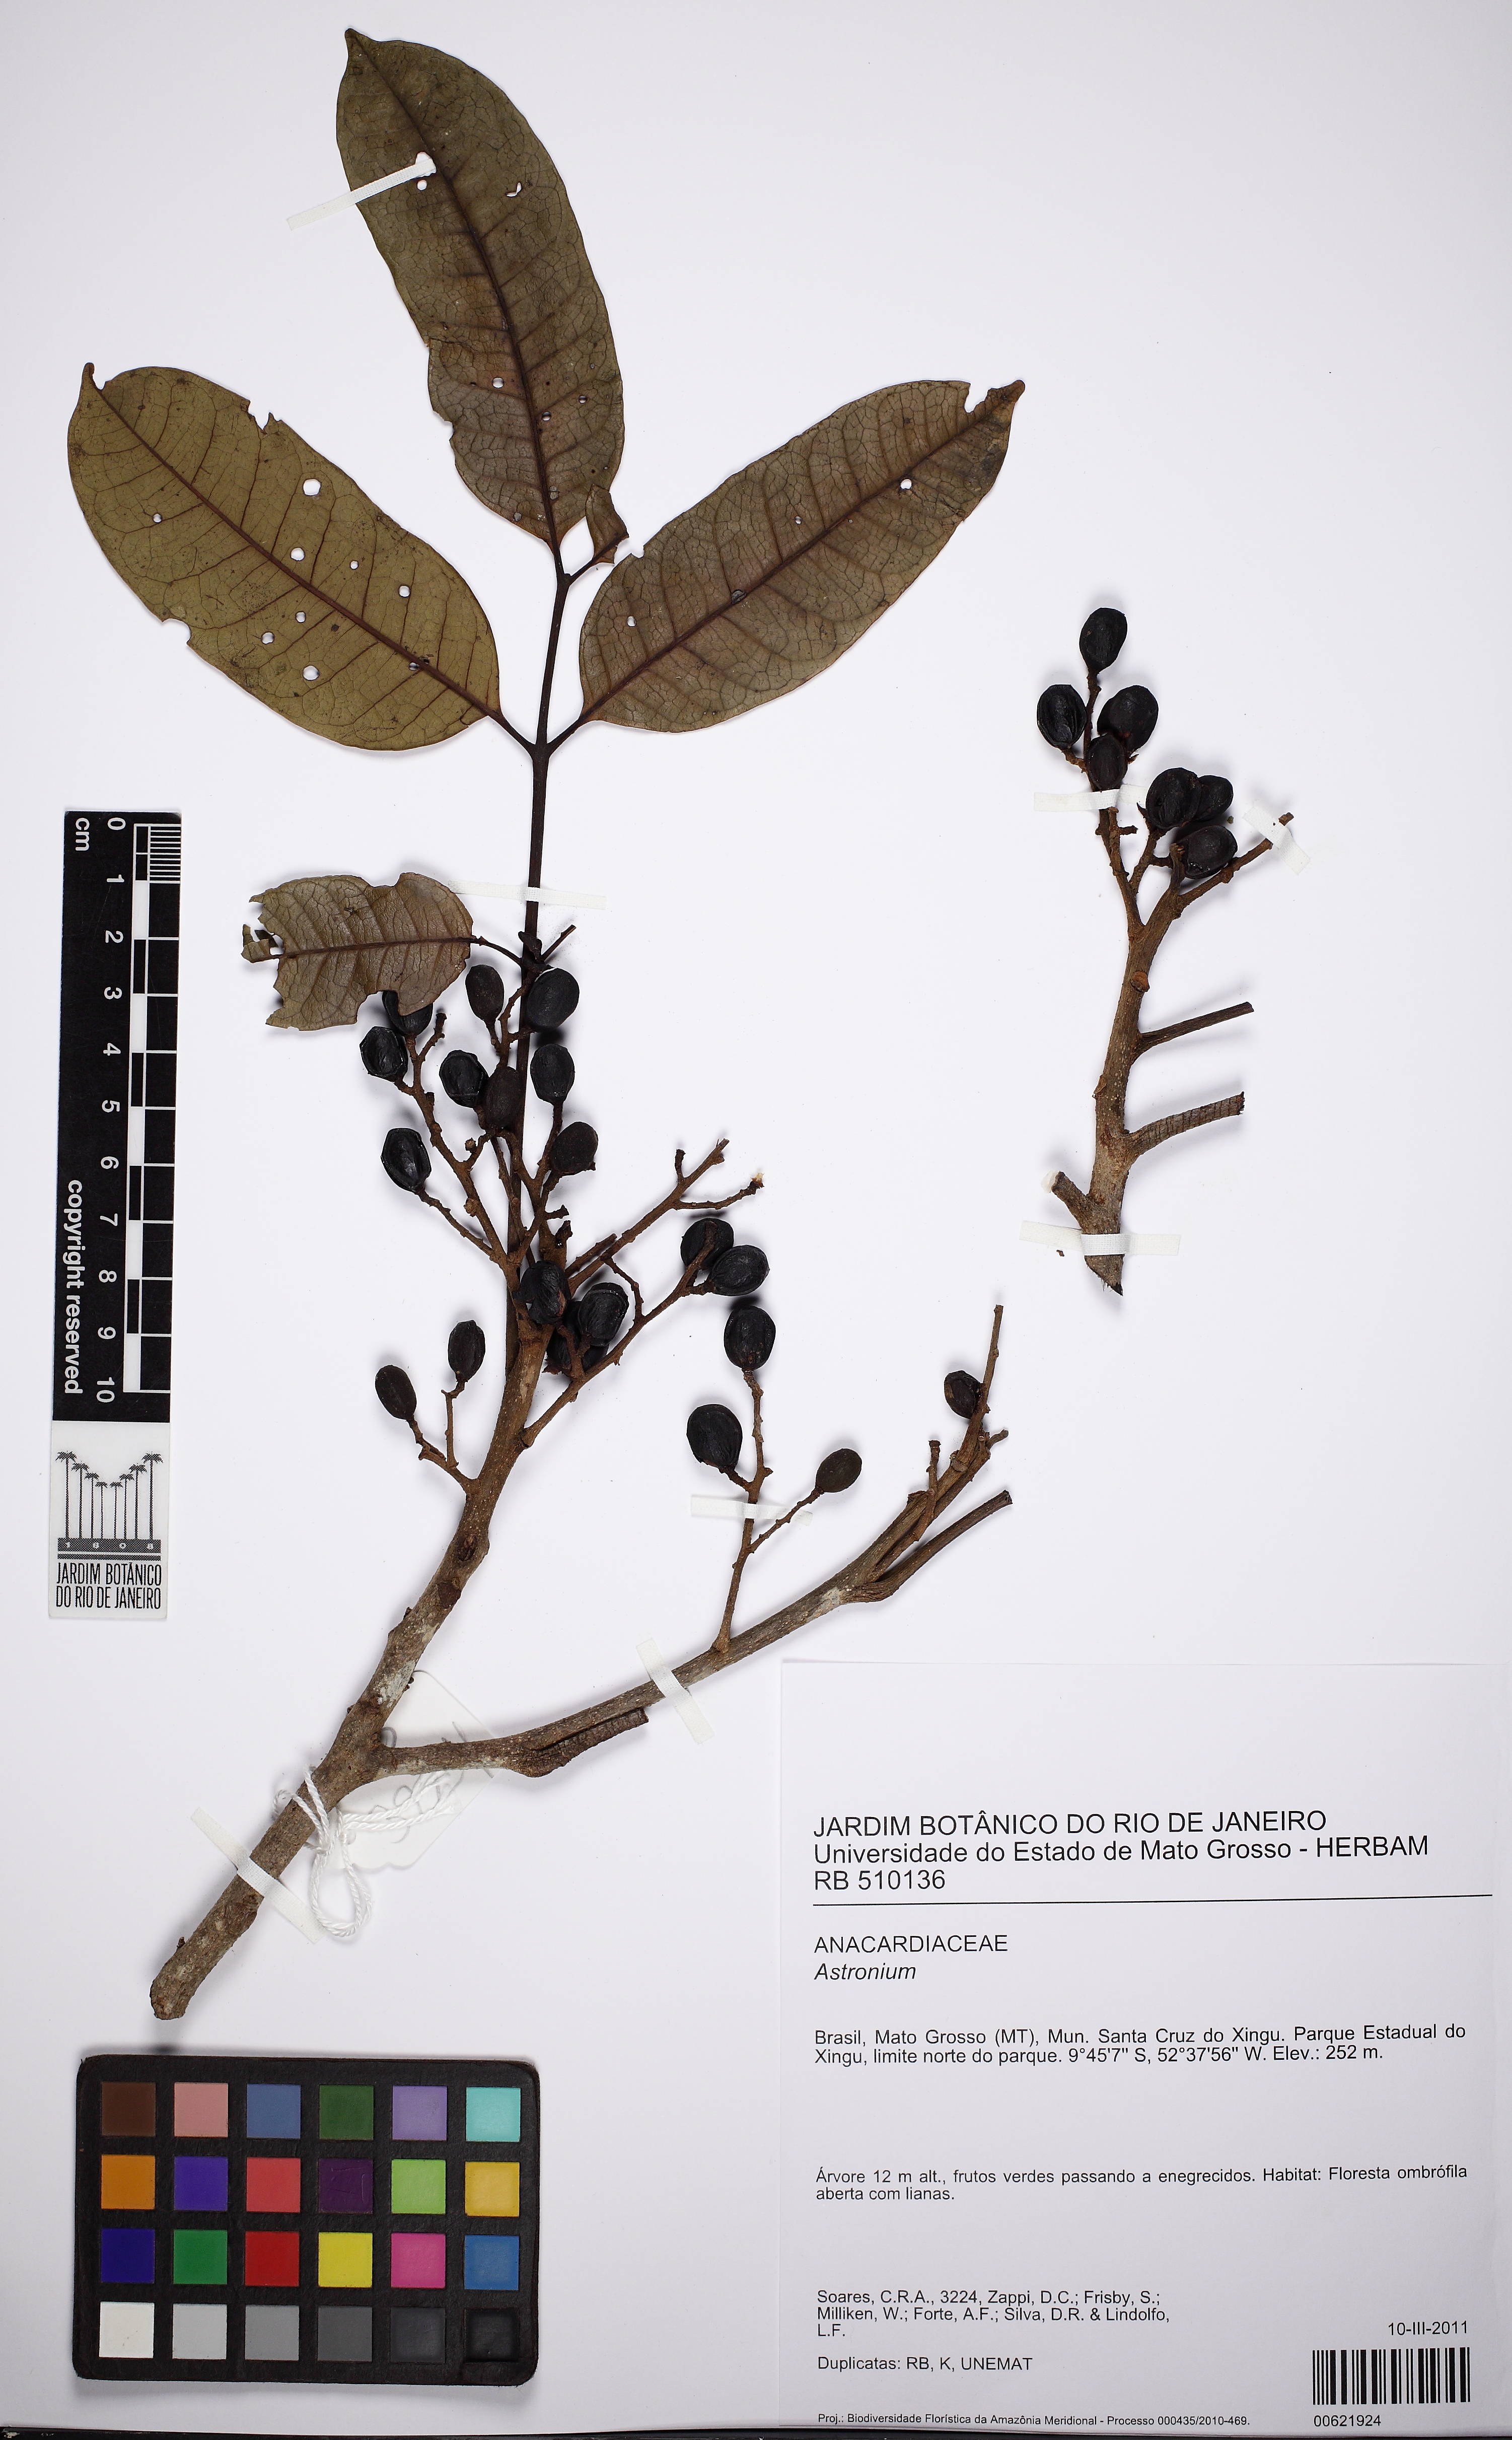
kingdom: Plantae
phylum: Tracheophyta
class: Magnoliopsida
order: Sapindales
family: Anacardiaceae
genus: Tapirira
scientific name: Tapirira guianensis
